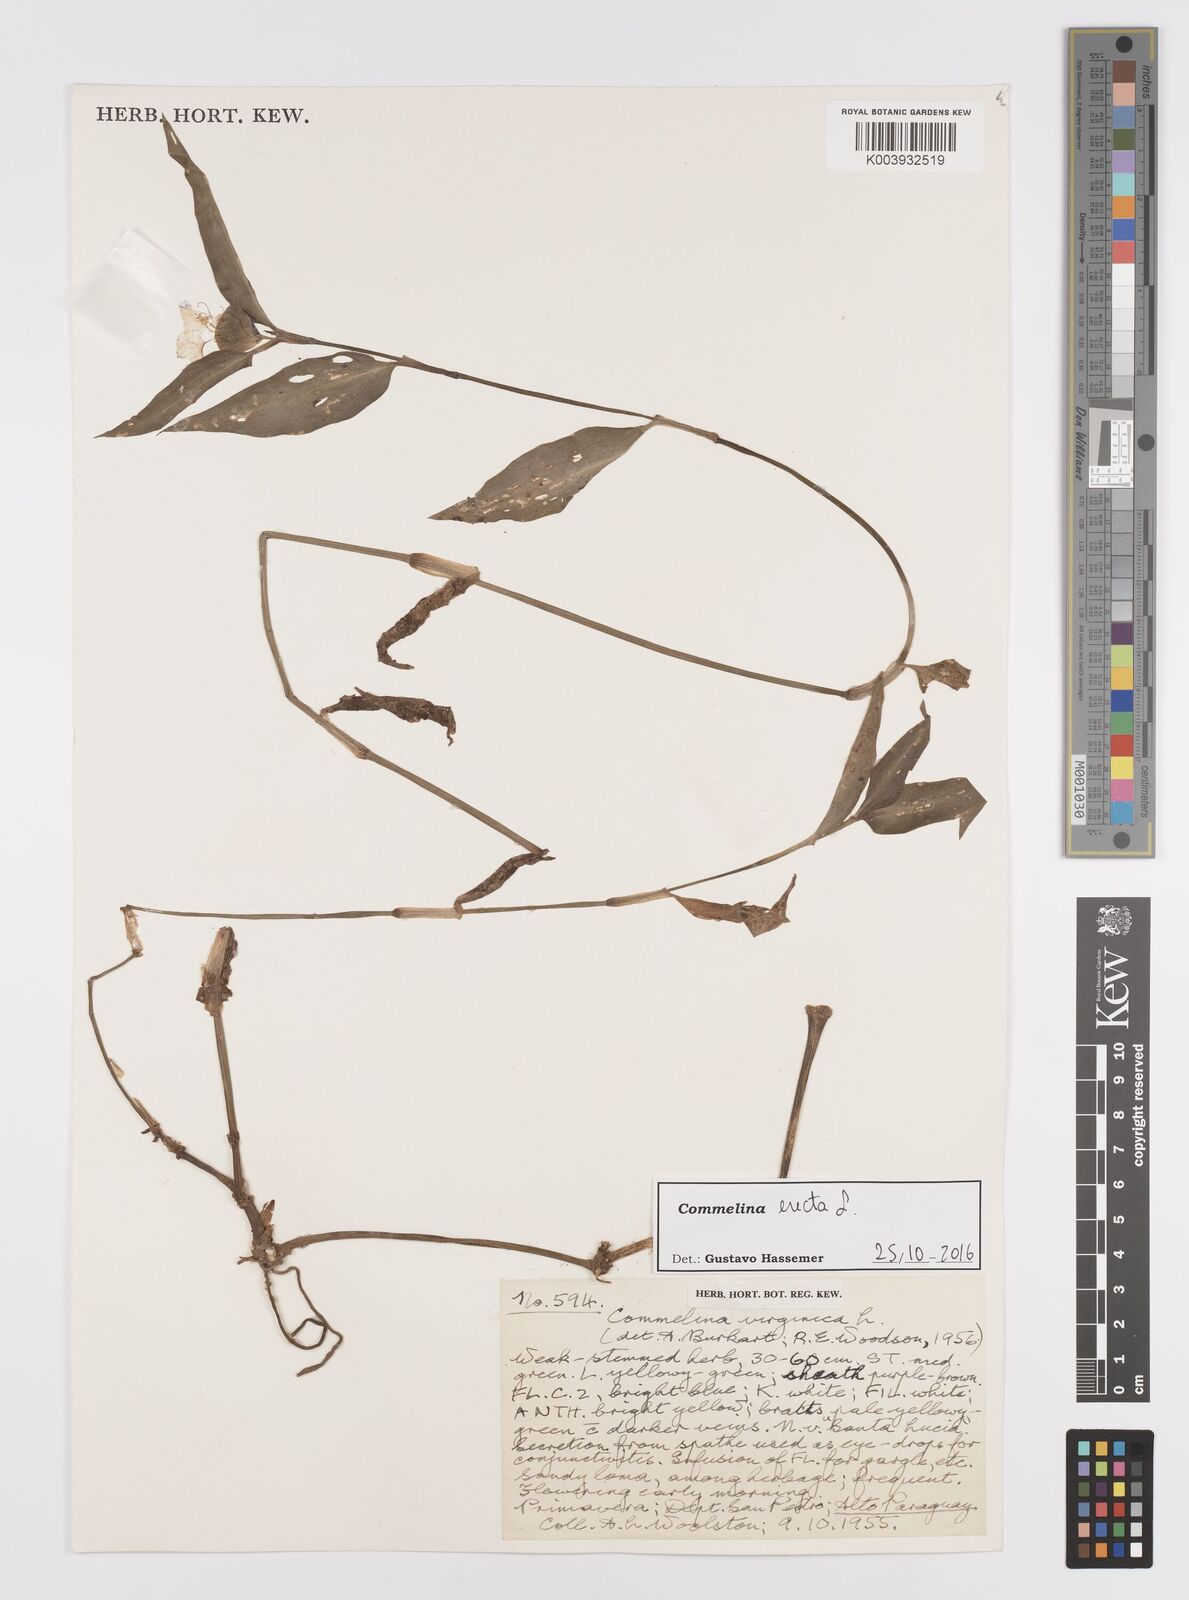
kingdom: Plantae
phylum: Tracheophyta
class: Liliopsida
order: Commelinales
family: Commelinaceae
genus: Commelina
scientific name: Commelina erecta
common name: Blousel blommetjie
